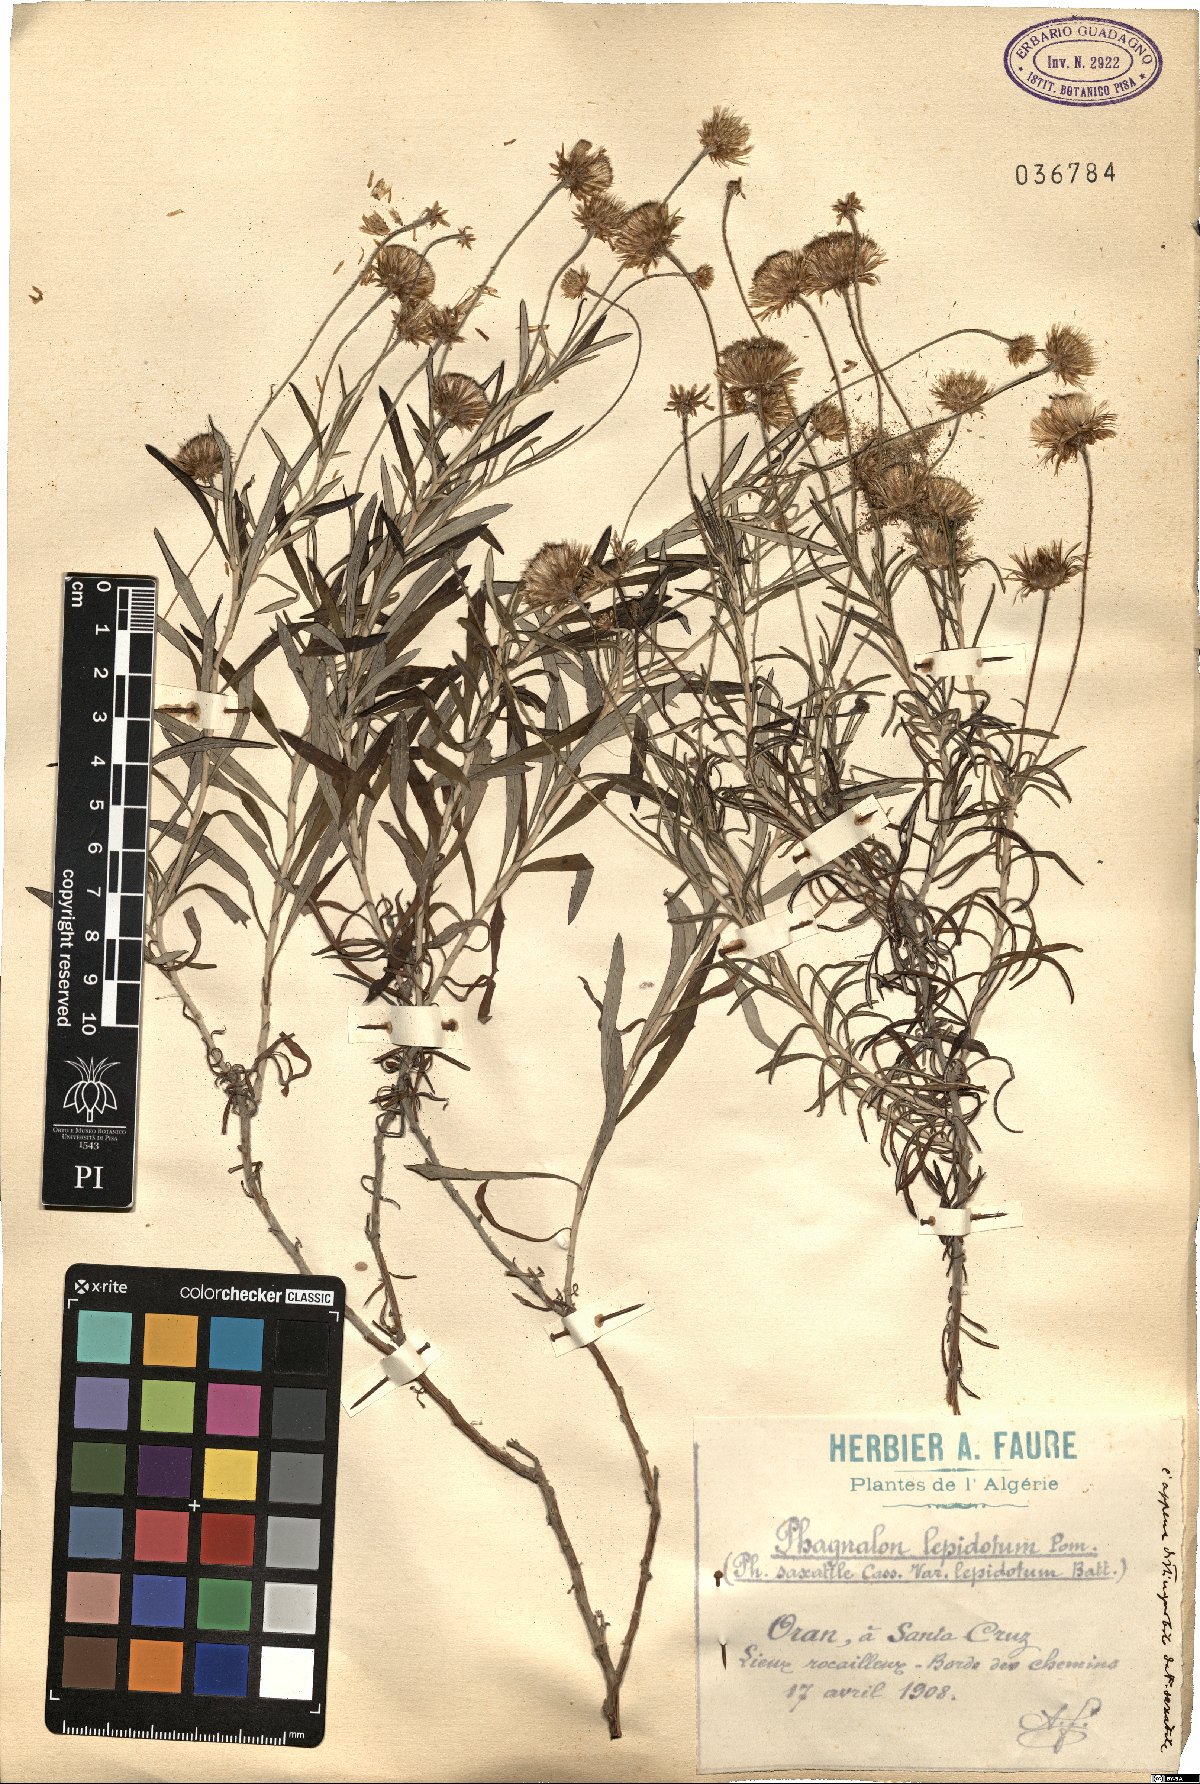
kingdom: Plantae
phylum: Tracheophyta
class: Magnoliopsida
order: Asterales
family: Asteraceae
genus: Phagnalon
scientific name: Phagnalon saxatile
